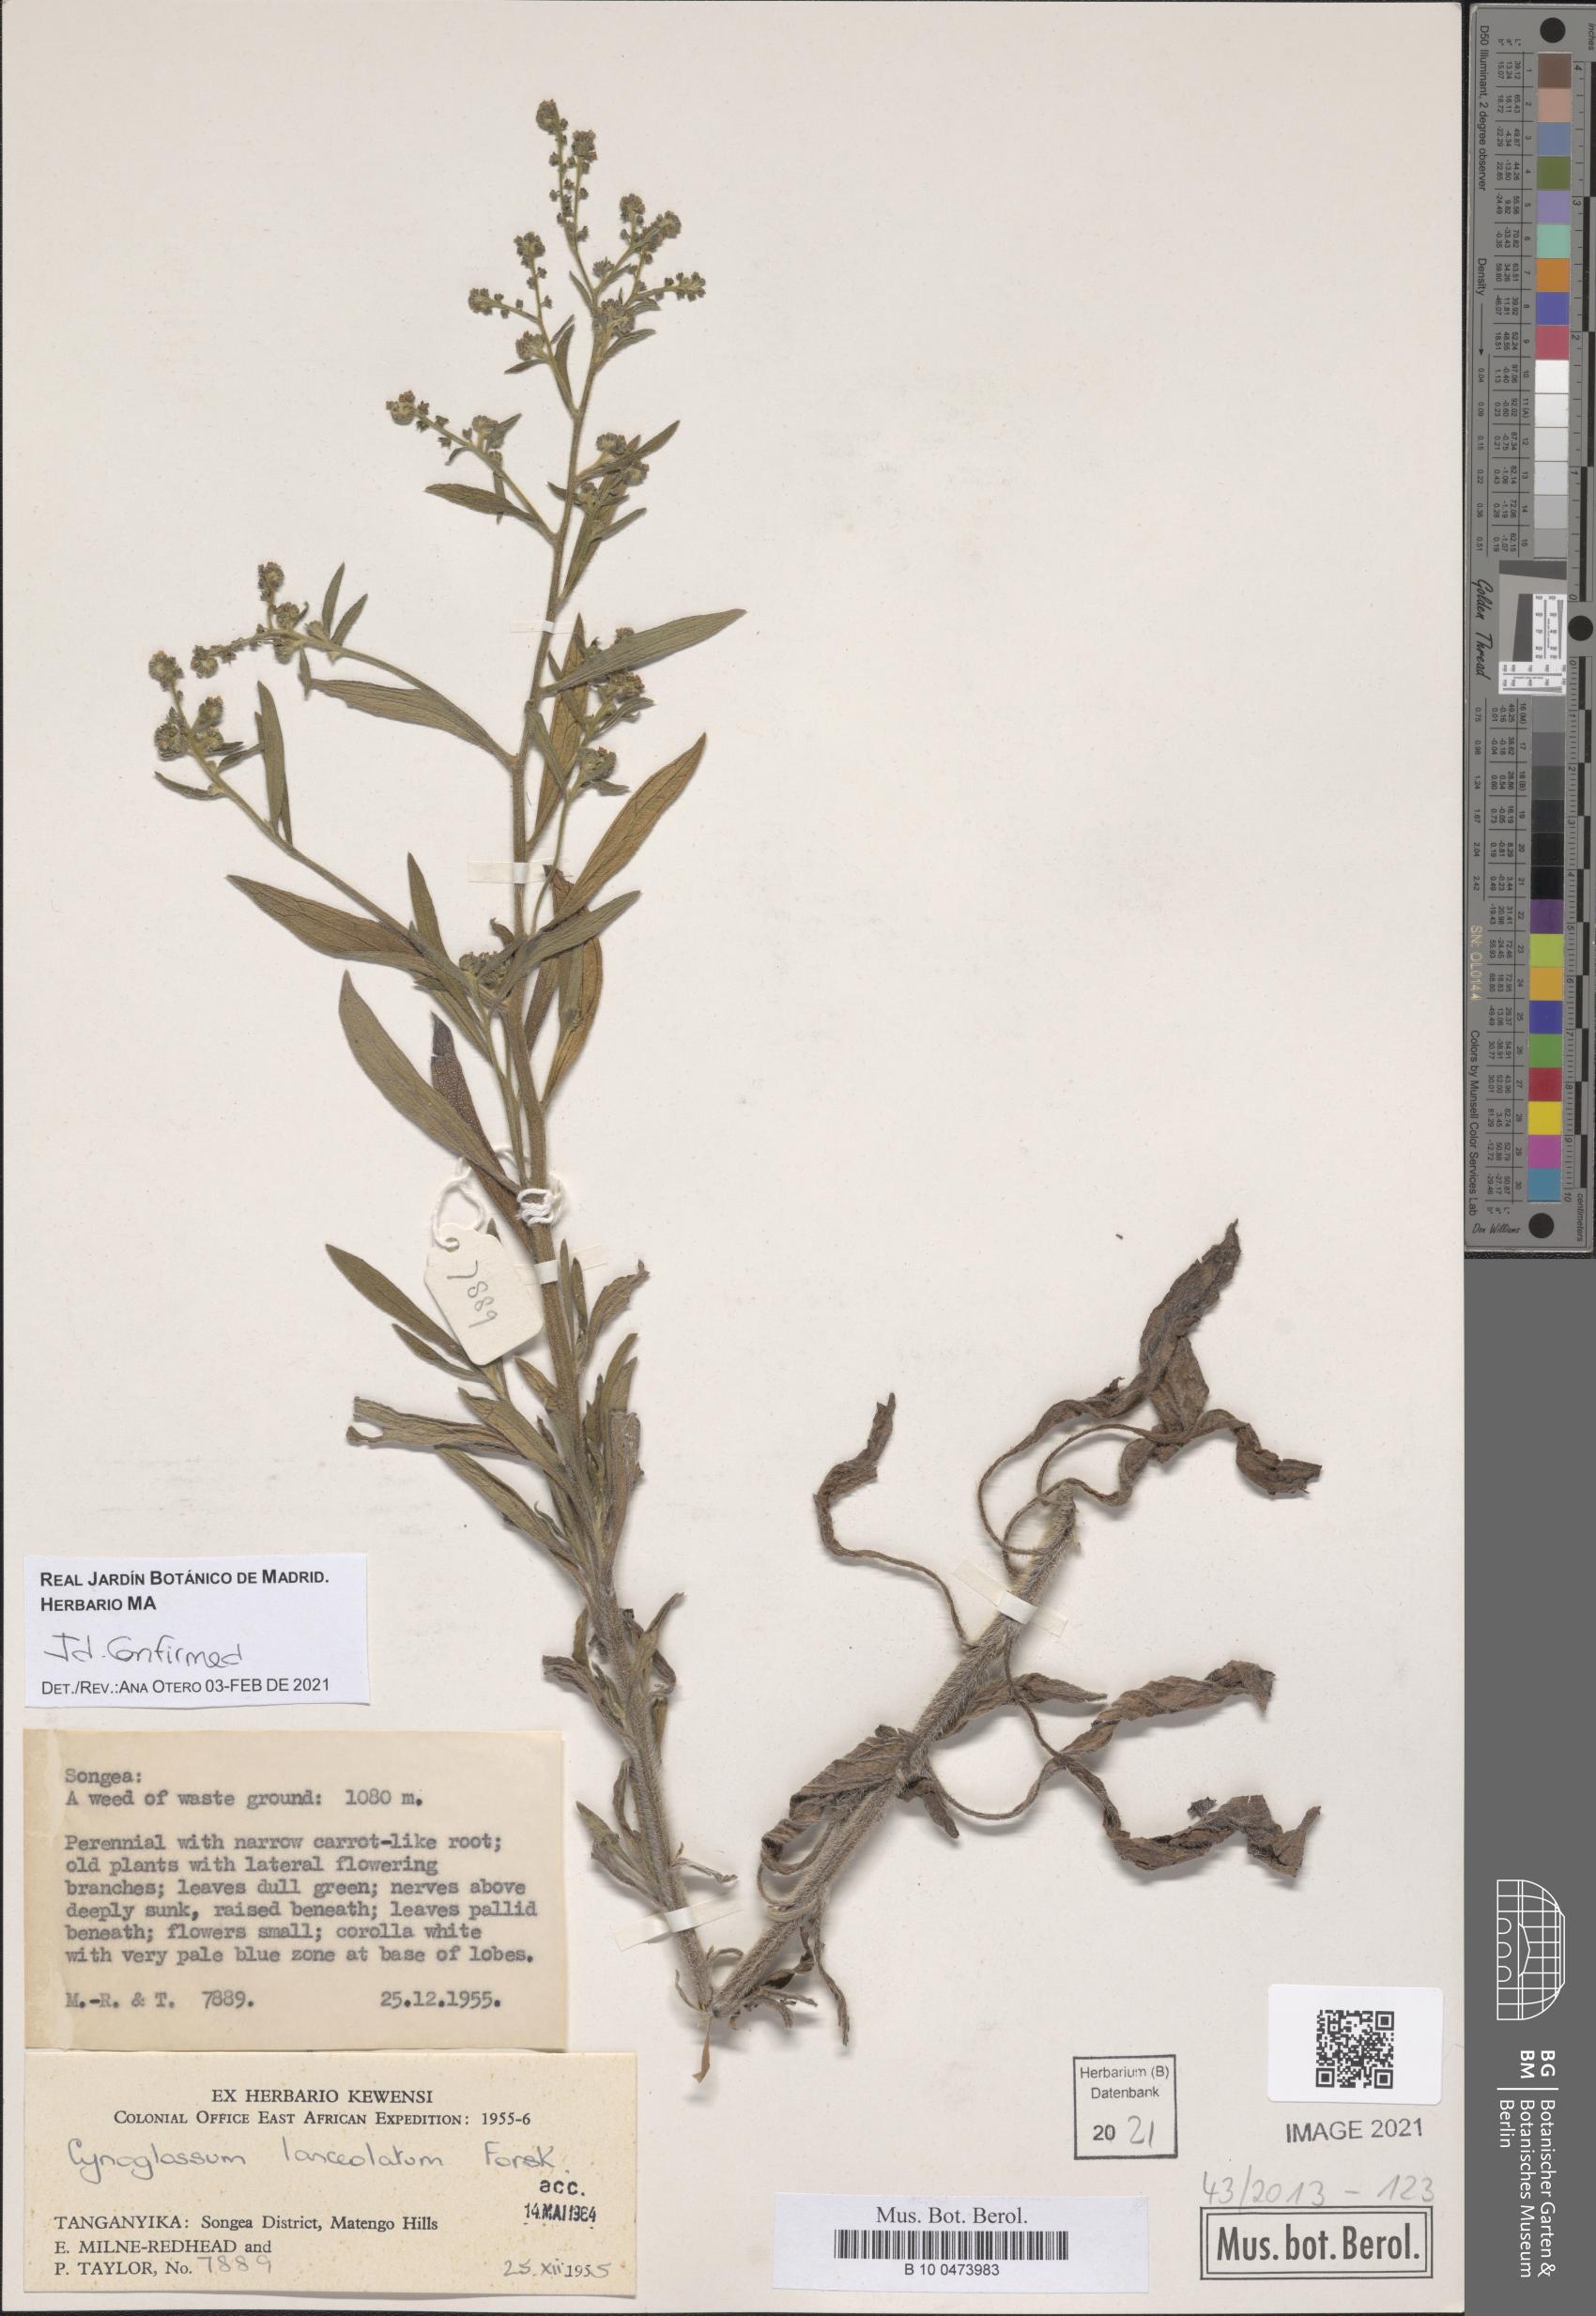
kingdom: Plantae
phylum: Tracheophyta
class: Magnoliopsida
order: Boraginales
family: Boraginaceae
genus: Paracynoglossum
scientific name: Paracynoglossum lanceolatum
